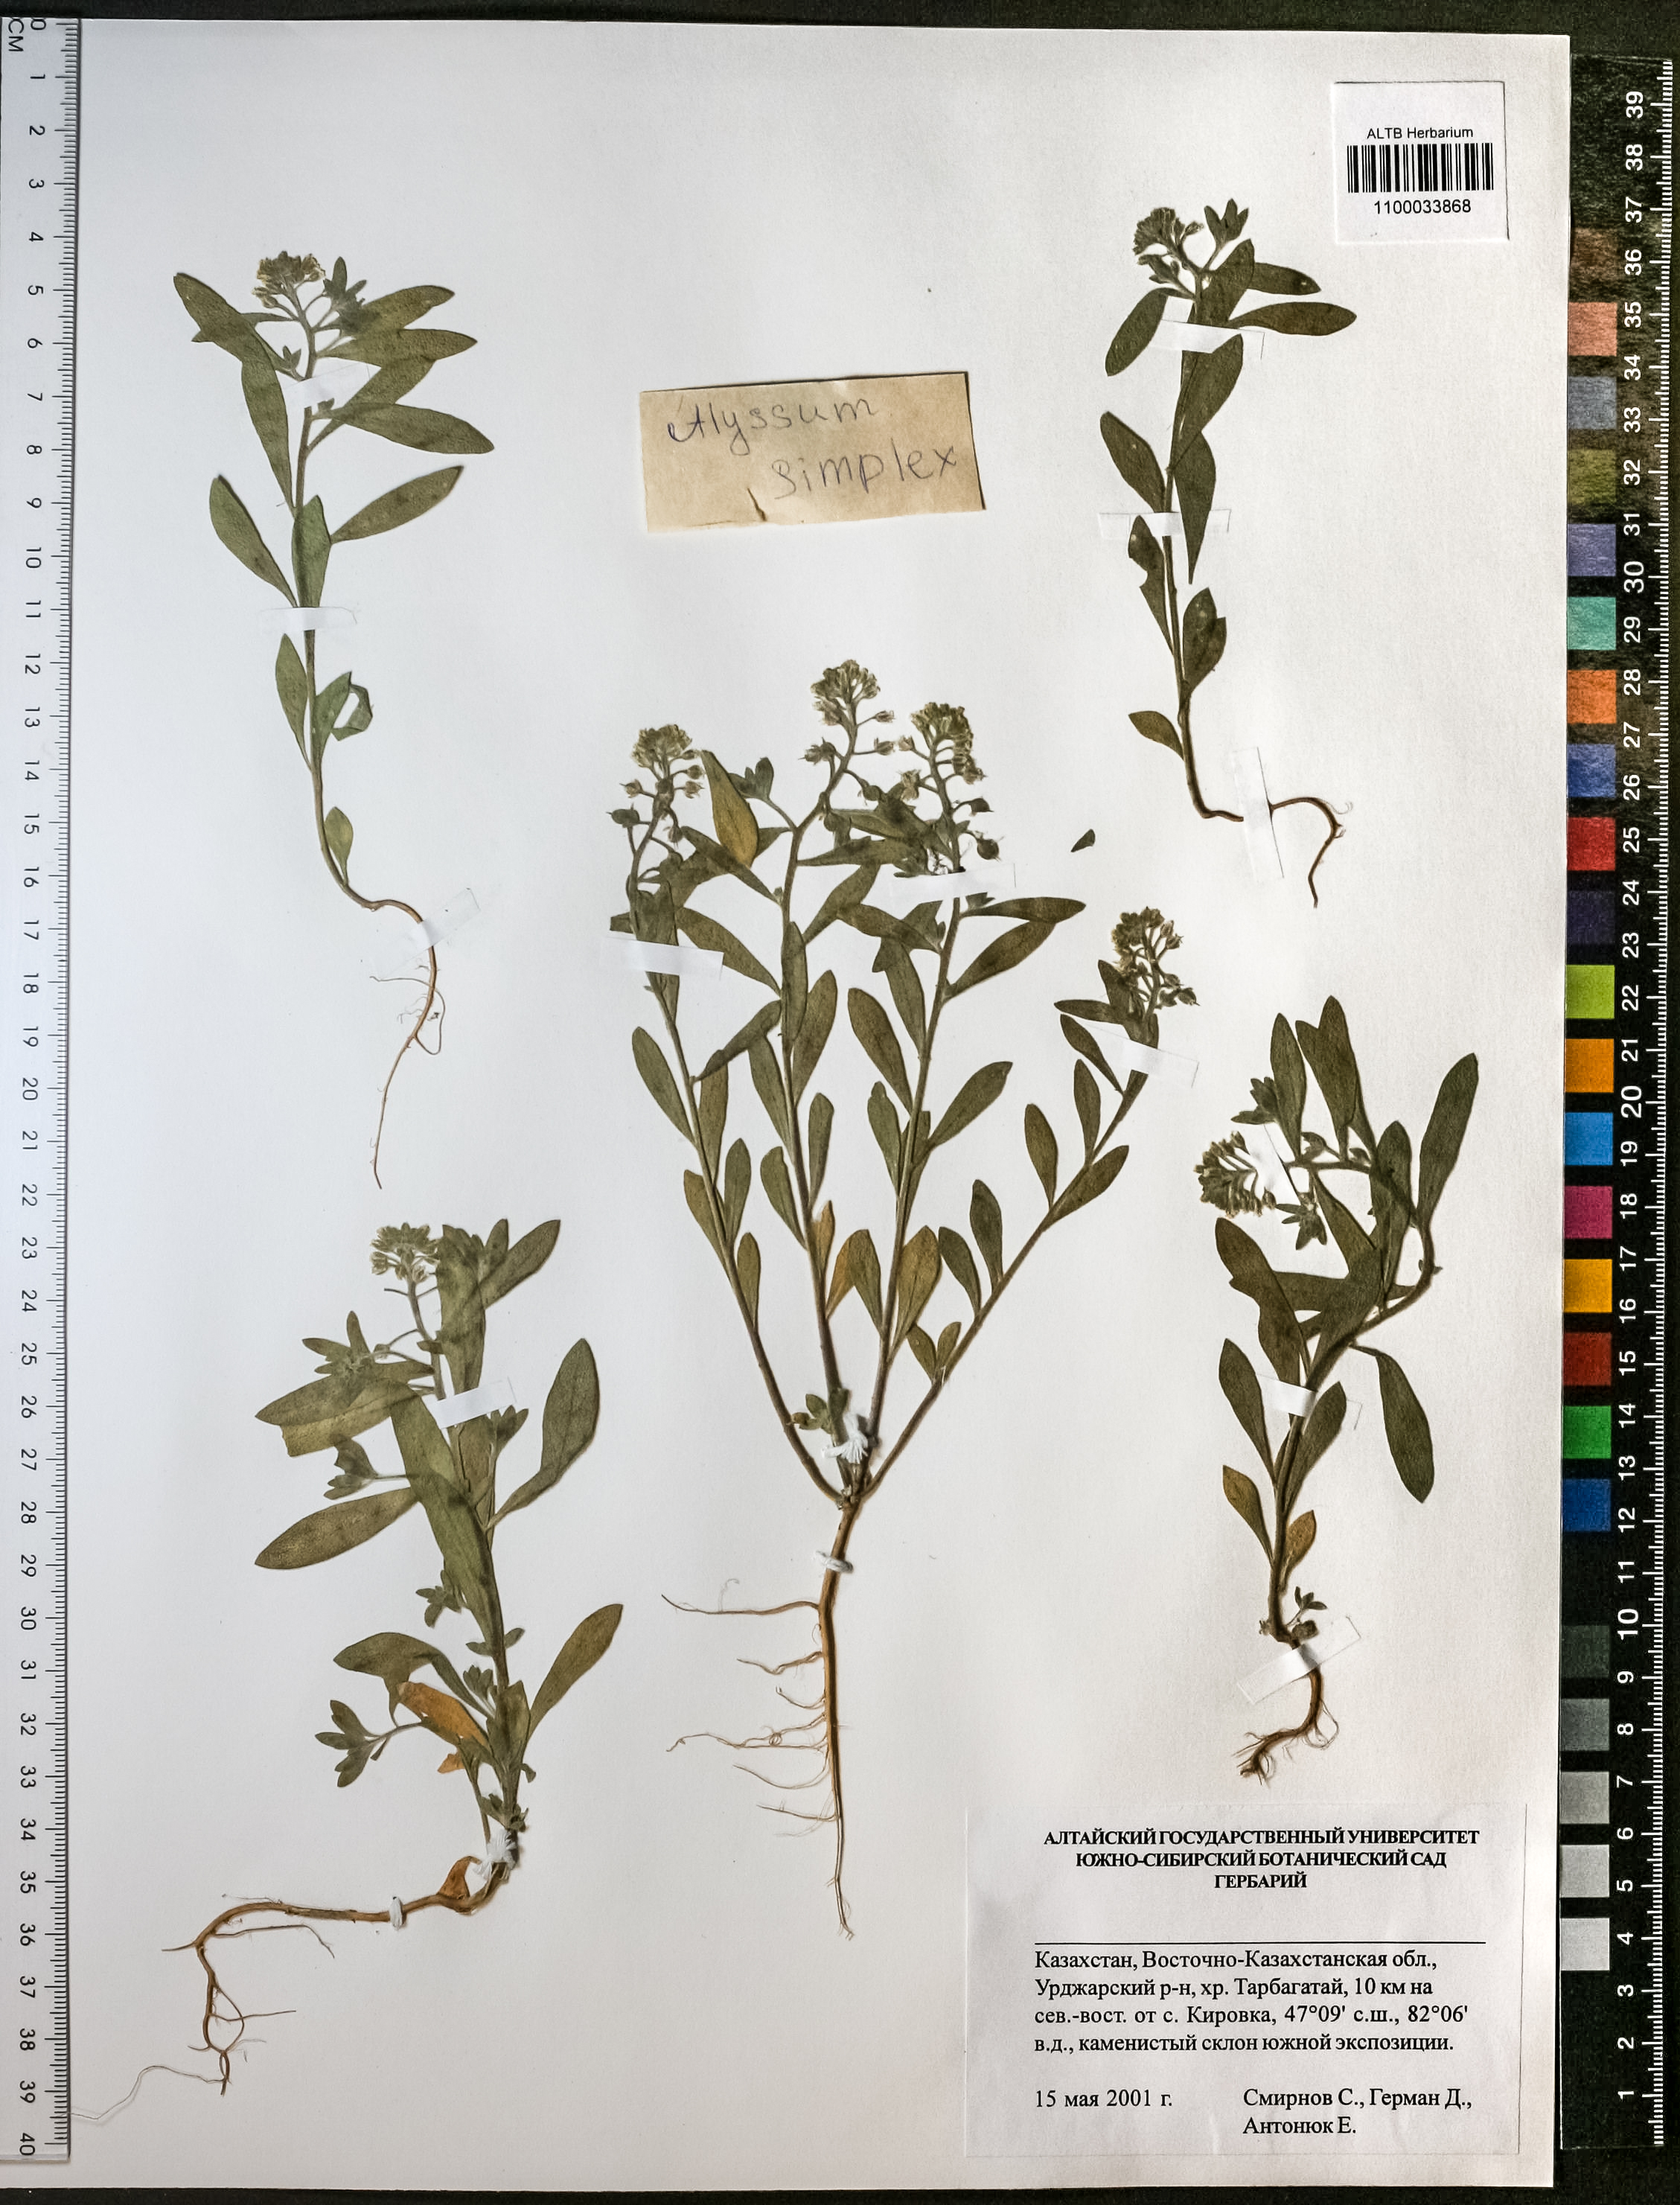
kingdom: Plantae
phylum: Tracheophyta
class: Magnoliopsida
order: Brassicales
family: Brassicaceae
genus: Alyssum
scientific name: Alyssum simplex
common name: Alyssum
